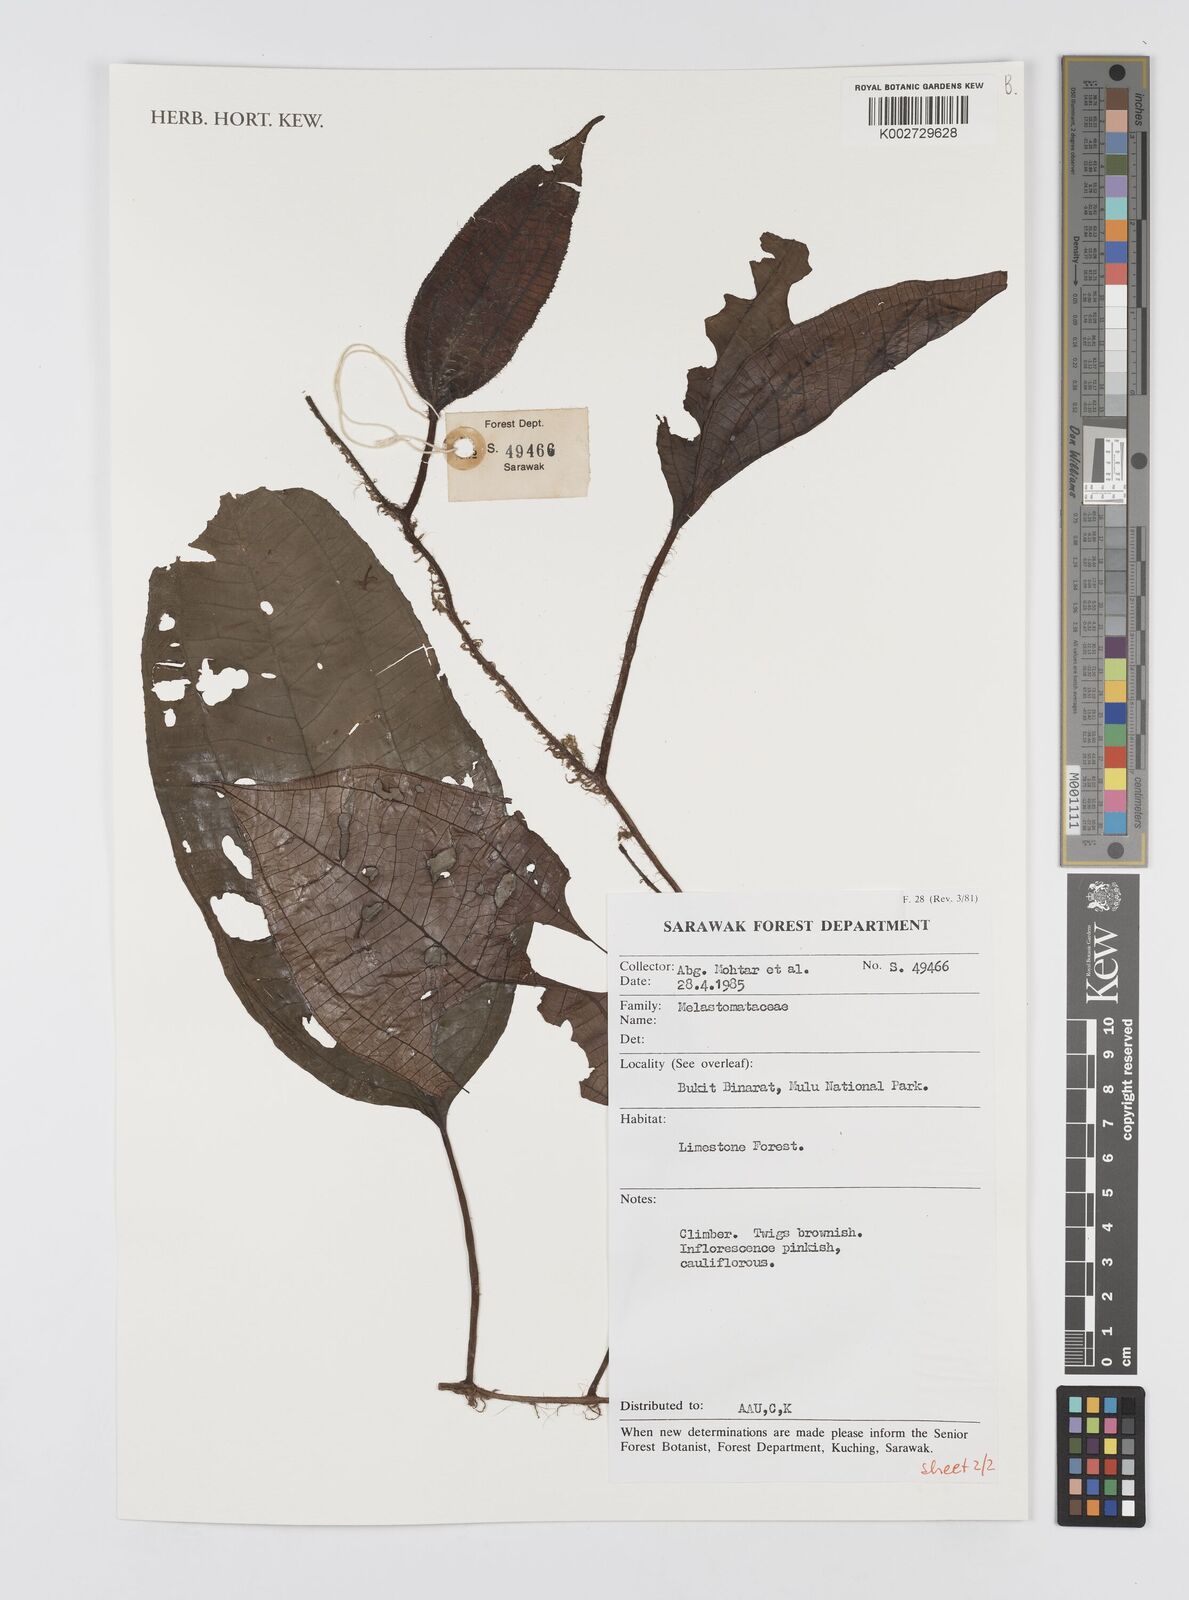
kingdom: Plantae
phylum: Tracheophyta
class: Magnoliopsida
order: Myrtales
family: Melastomataceae
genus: Heteroblemma
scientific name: Heteroblemma decurrens
